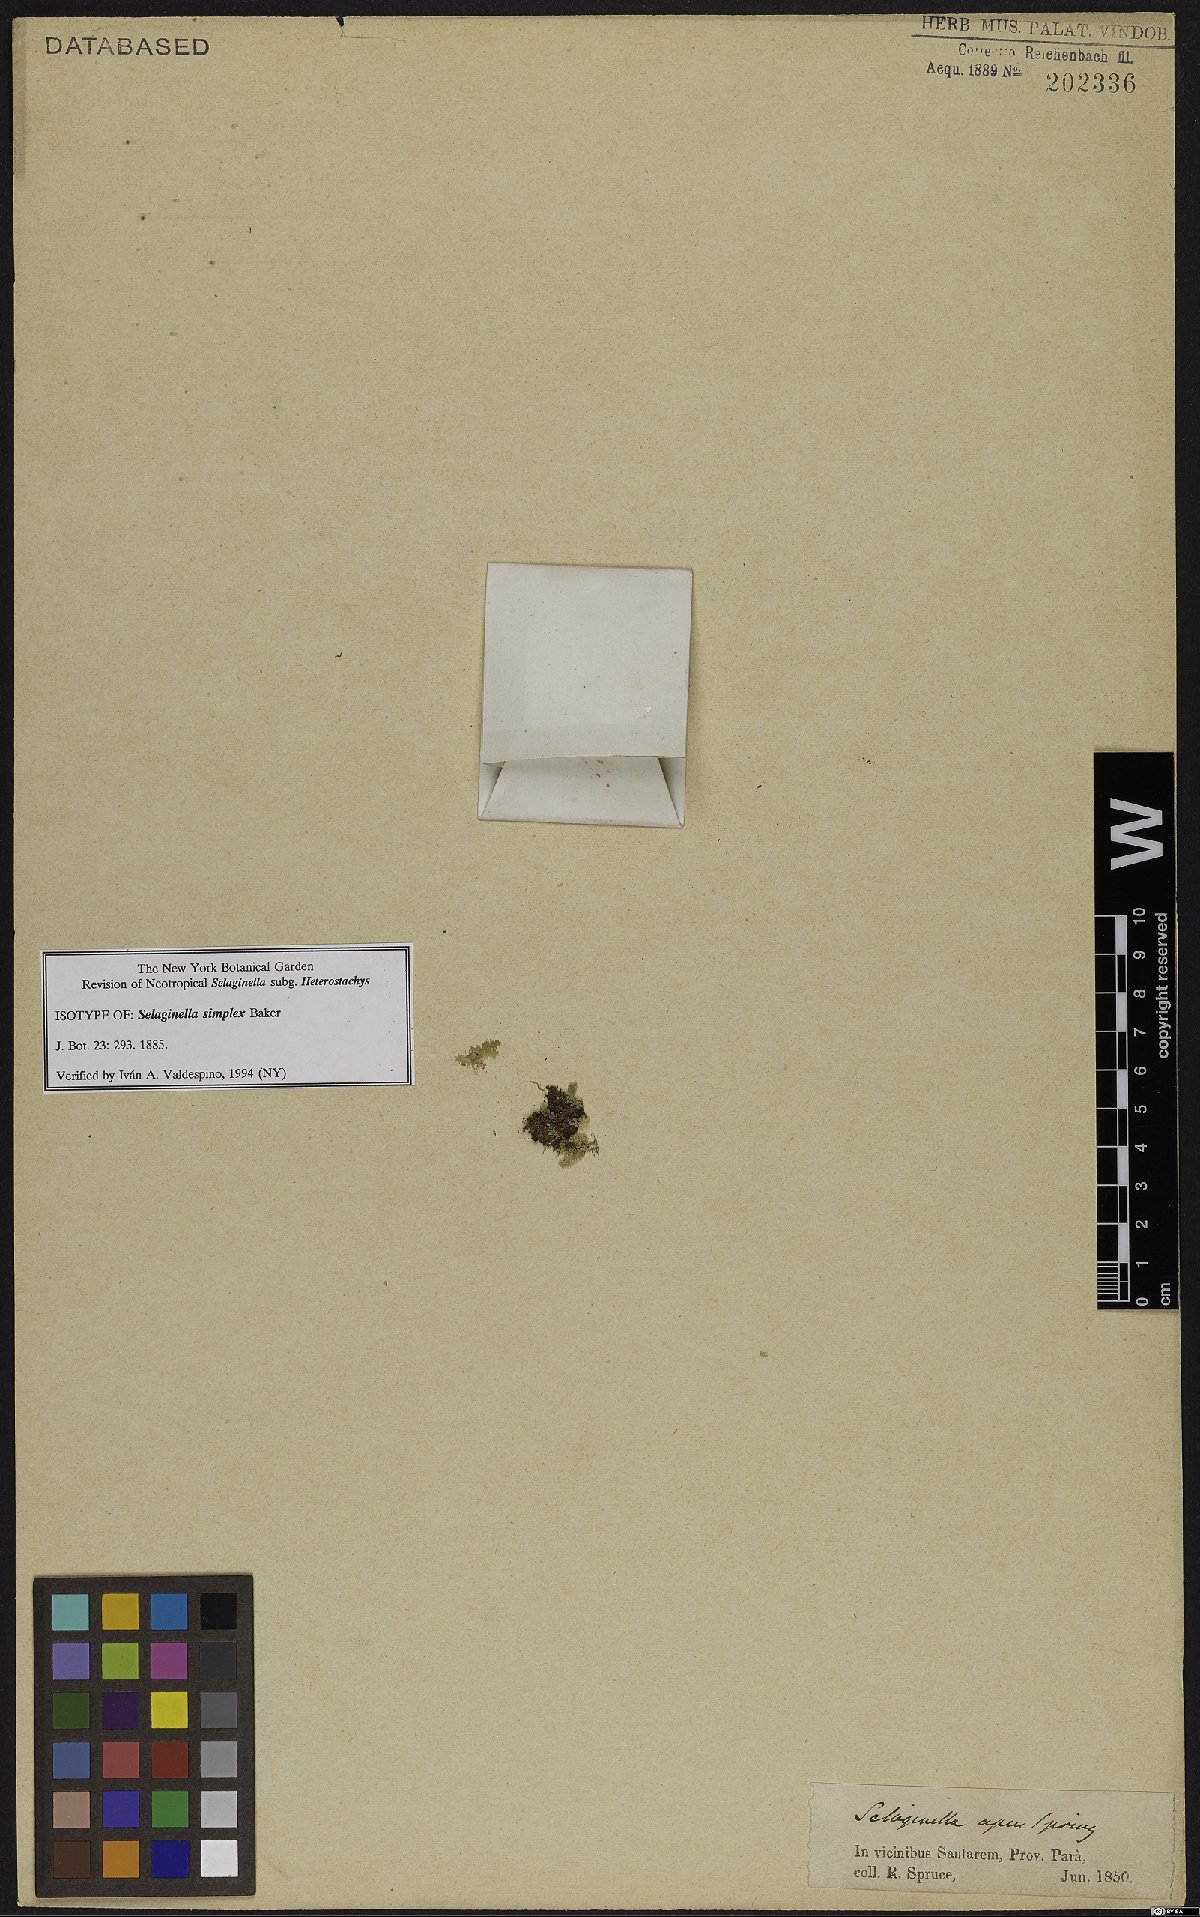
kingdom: Plantae
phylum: Tracheophyta
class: Lycopodiopsida
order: Selaginellales
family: Selaginellaceae
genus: Selaginella
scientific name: Selaginella simplex
